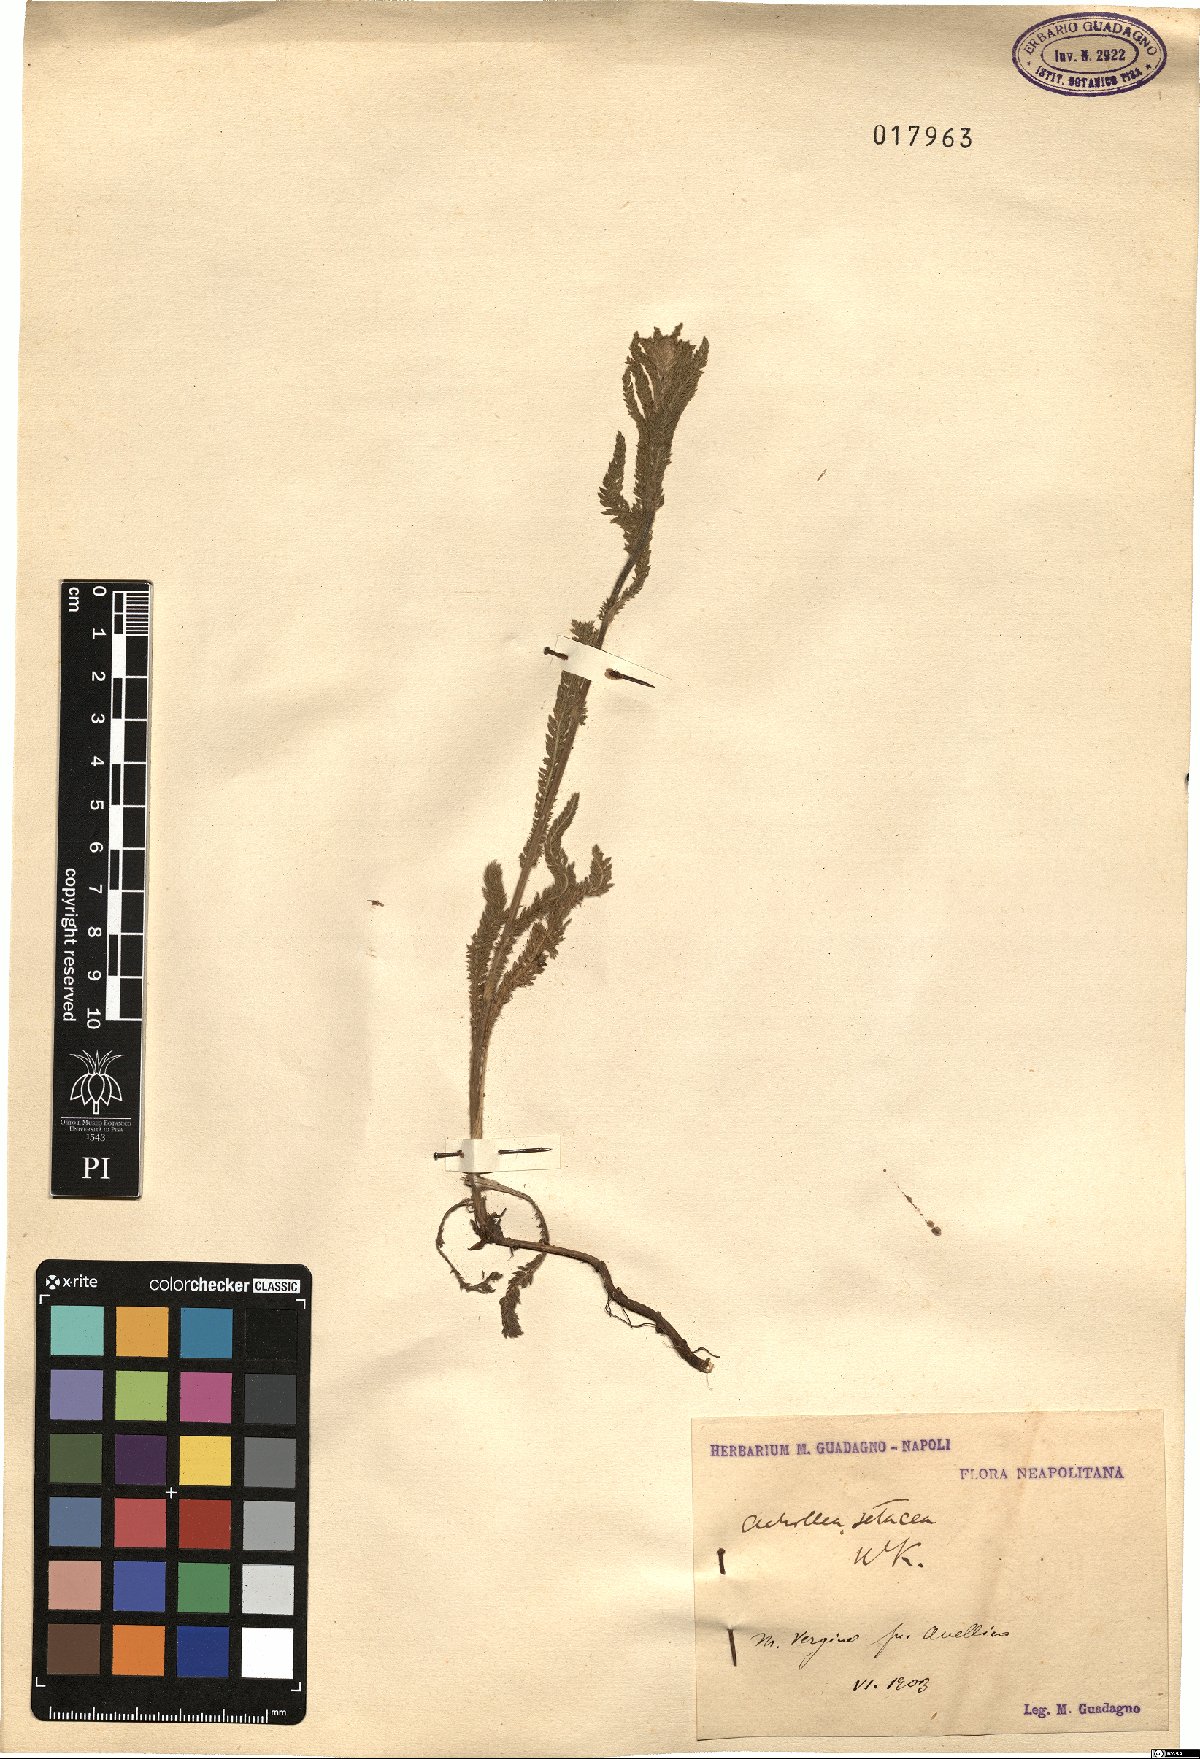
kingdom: Plantae
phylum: Tracheophyta
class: Magnoliopsida
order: Asterales
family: Asteraceae
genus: Achillea
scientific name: Achillea setacea
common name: Bristly yarrow
